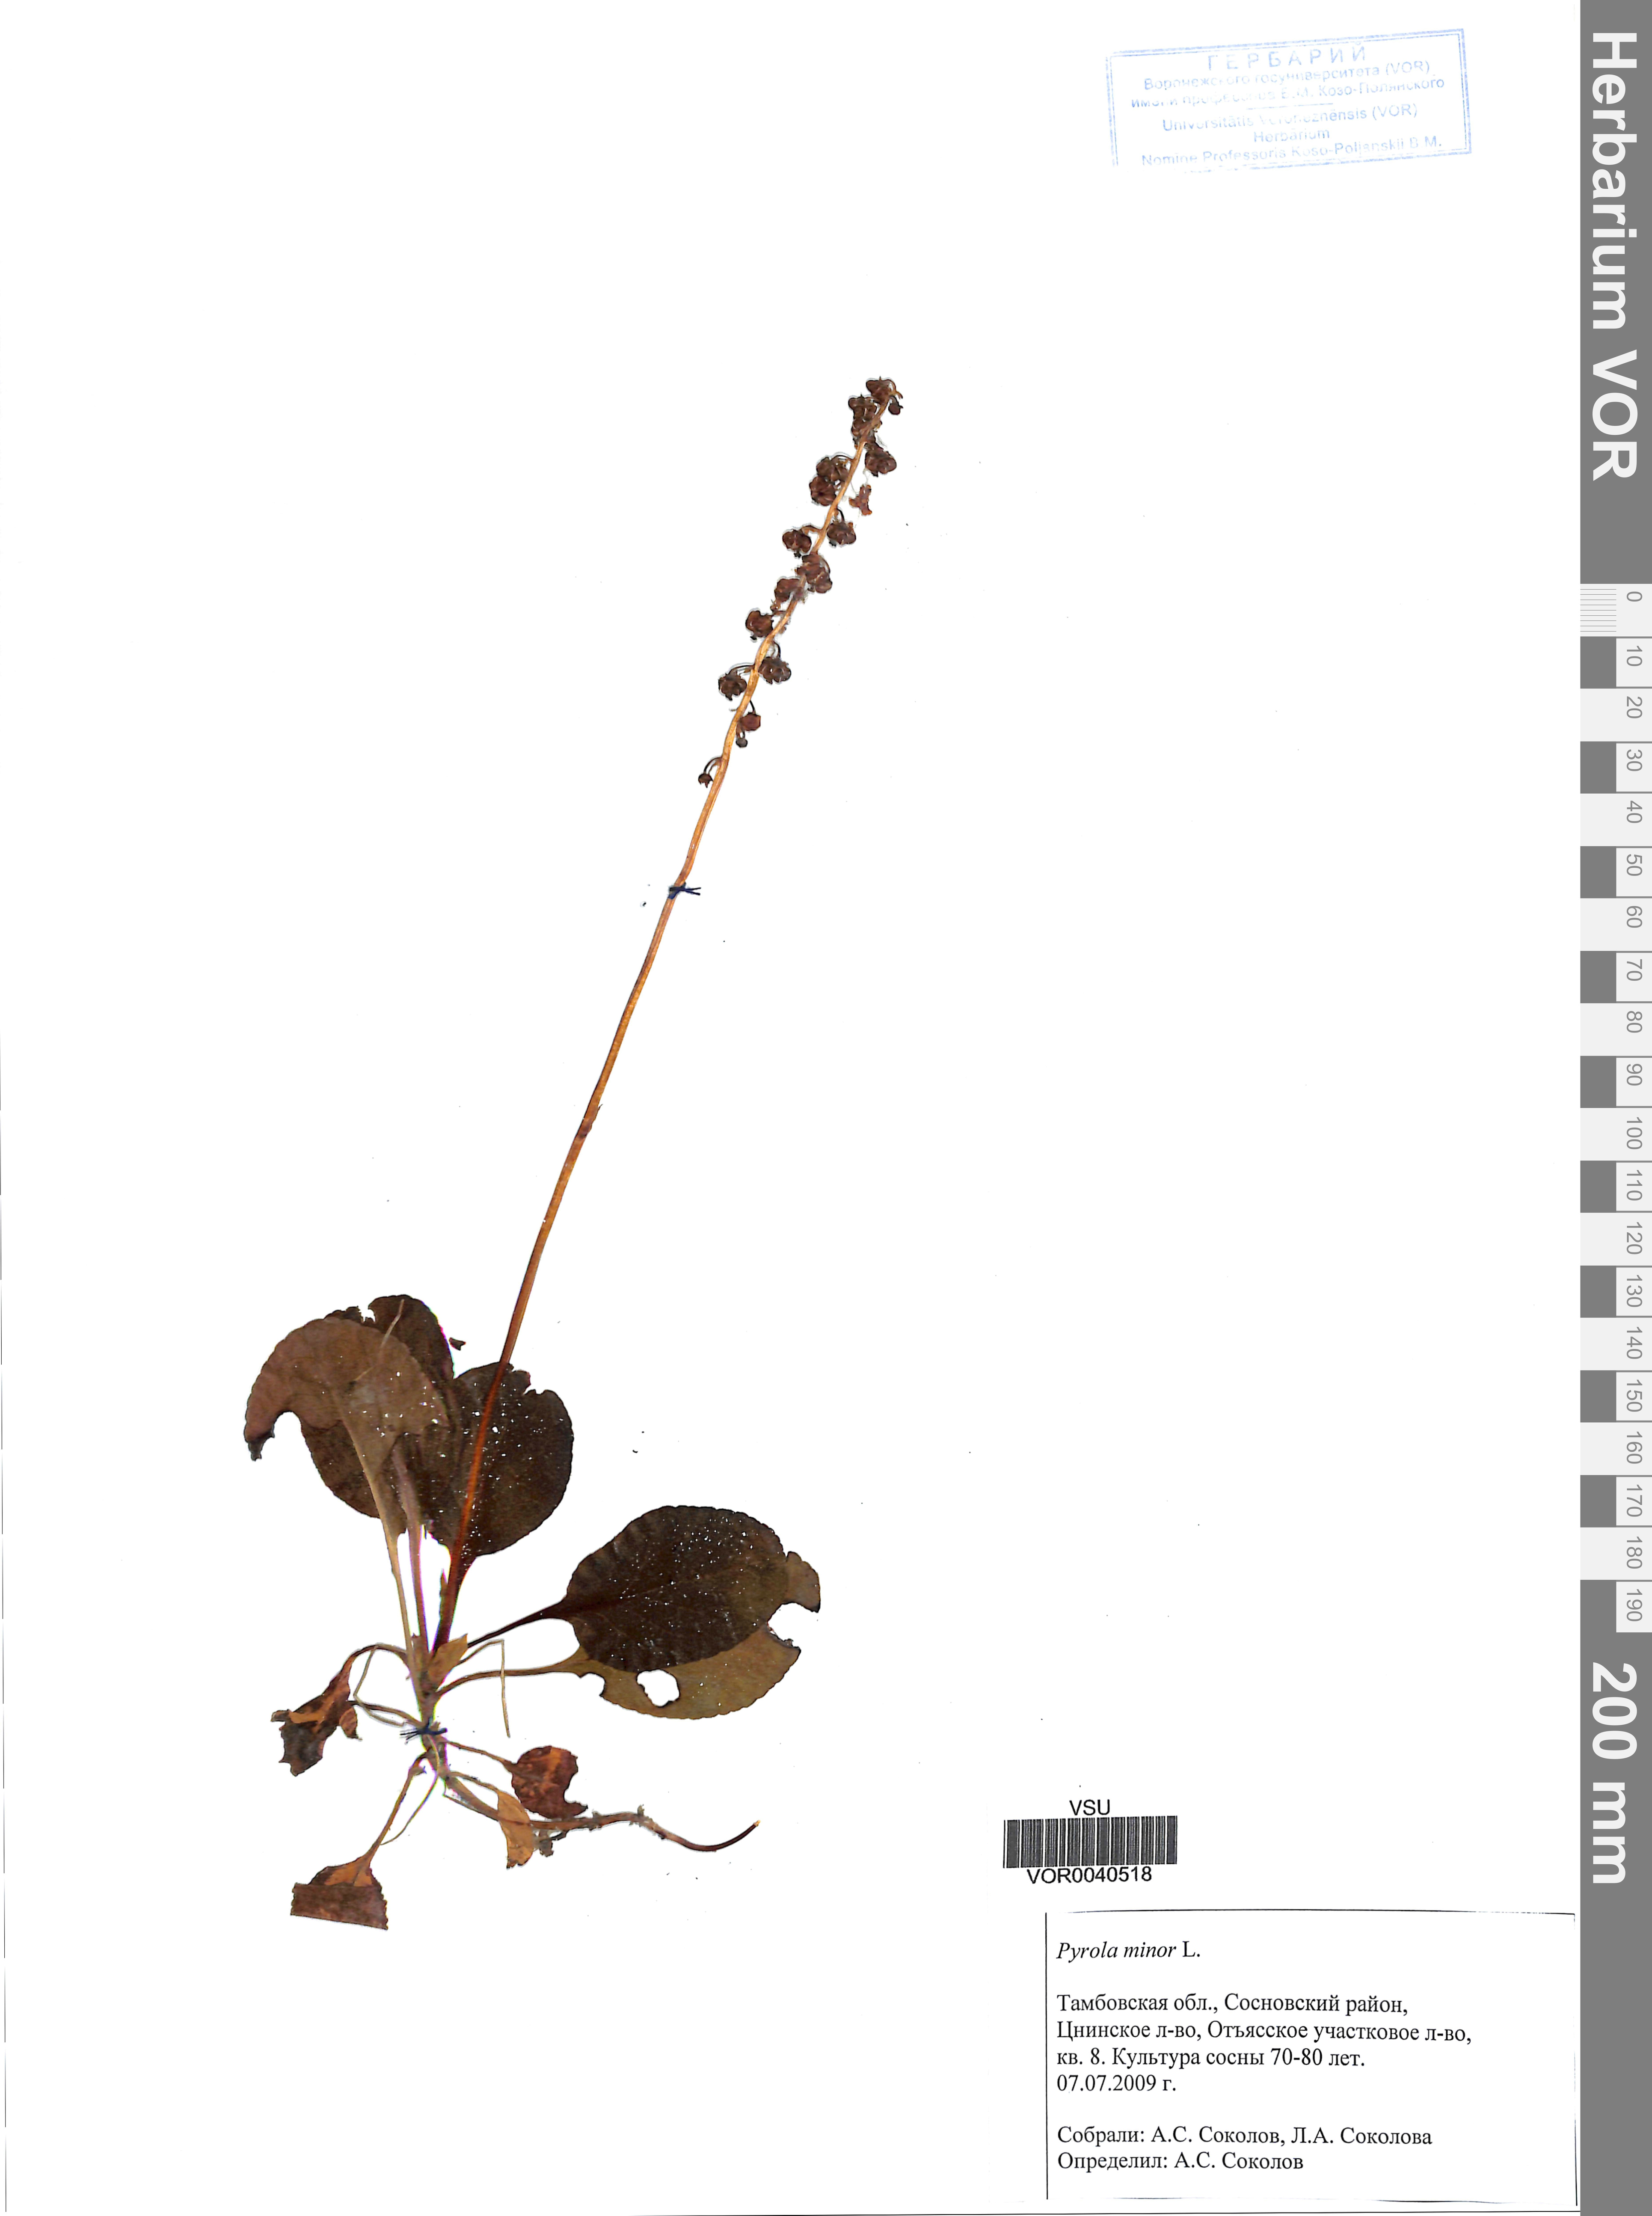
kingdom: Plantae
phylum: Tracheophyta
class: Magnoliopsida
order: Ericales
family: Ericaceae
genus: Pyrola
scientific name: Pyrola minor
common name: Common wintergreen
